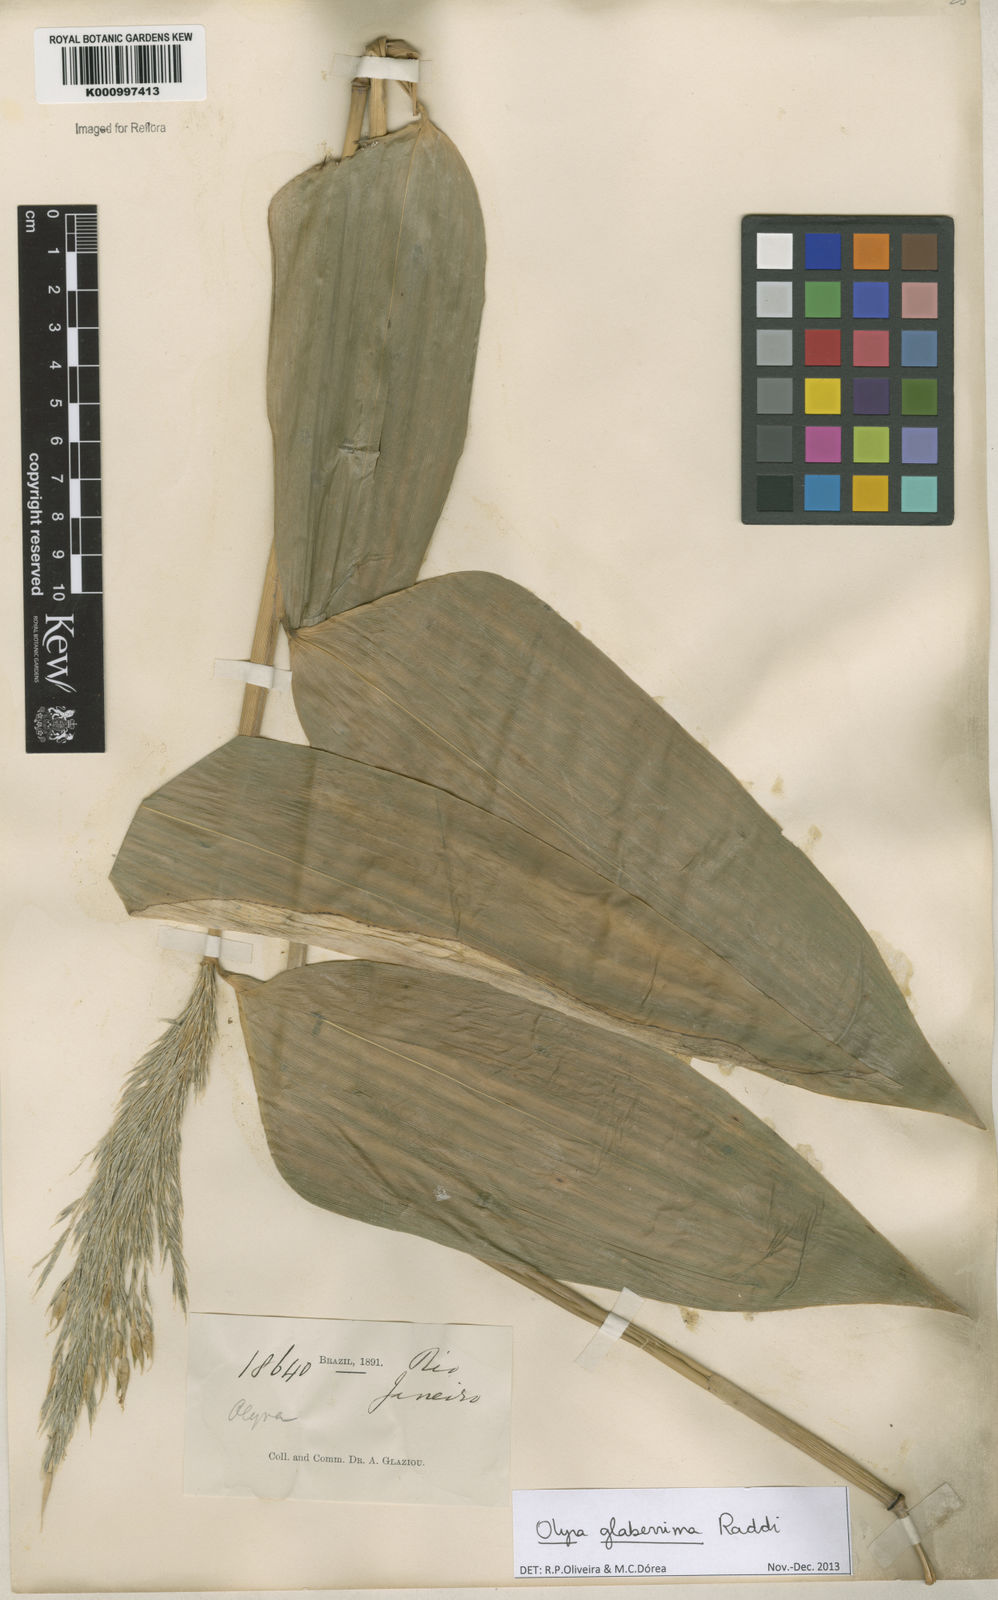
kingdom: Plantae
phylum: Tracheophyta
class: Liliopsida
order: Poales
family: Poaceae
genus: Olyra
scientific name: Olyra glaberrima
